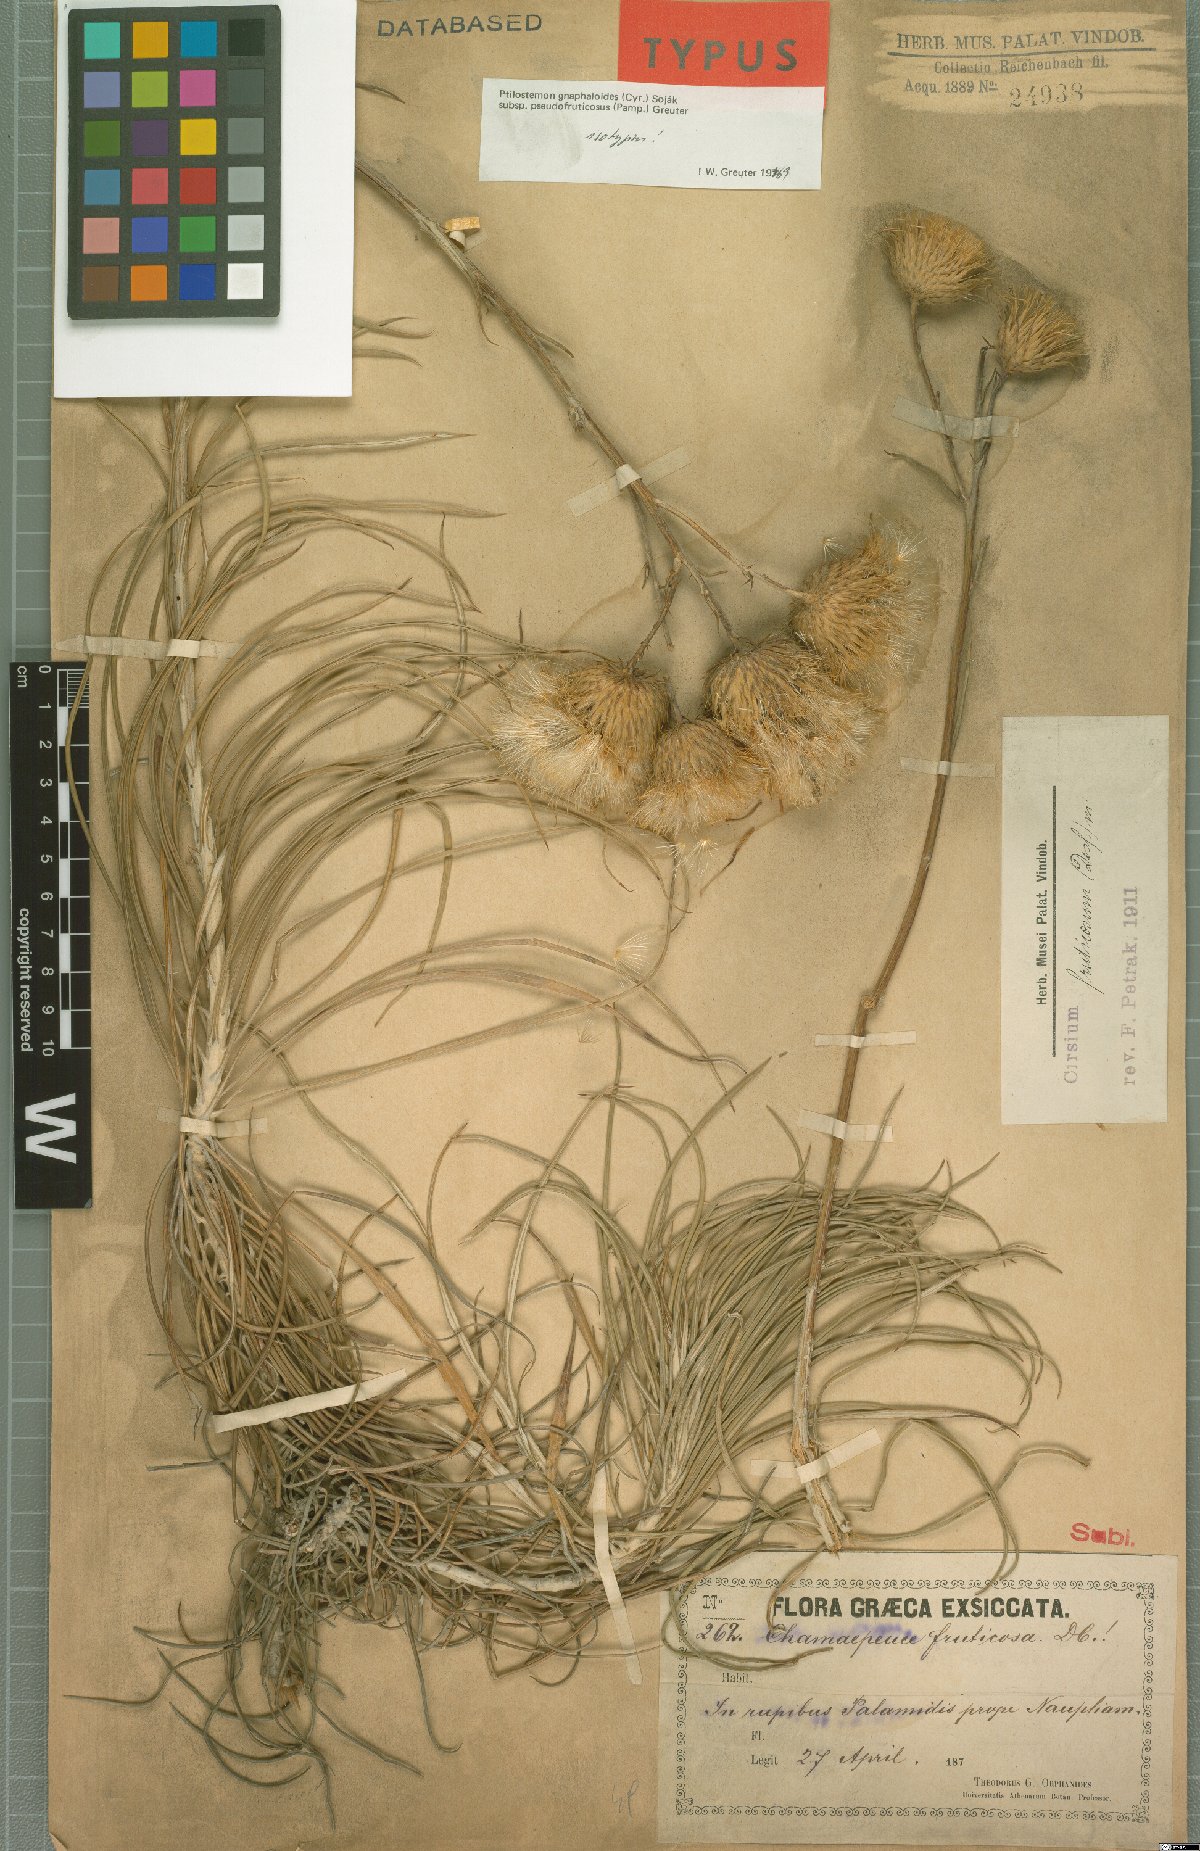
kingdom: Plantae
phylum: Tracheophyta
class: Magnoliopsida
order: Asterales
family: Asteraceae
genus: Ptilostemon
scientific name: Ptilostemon gnaphaloides
